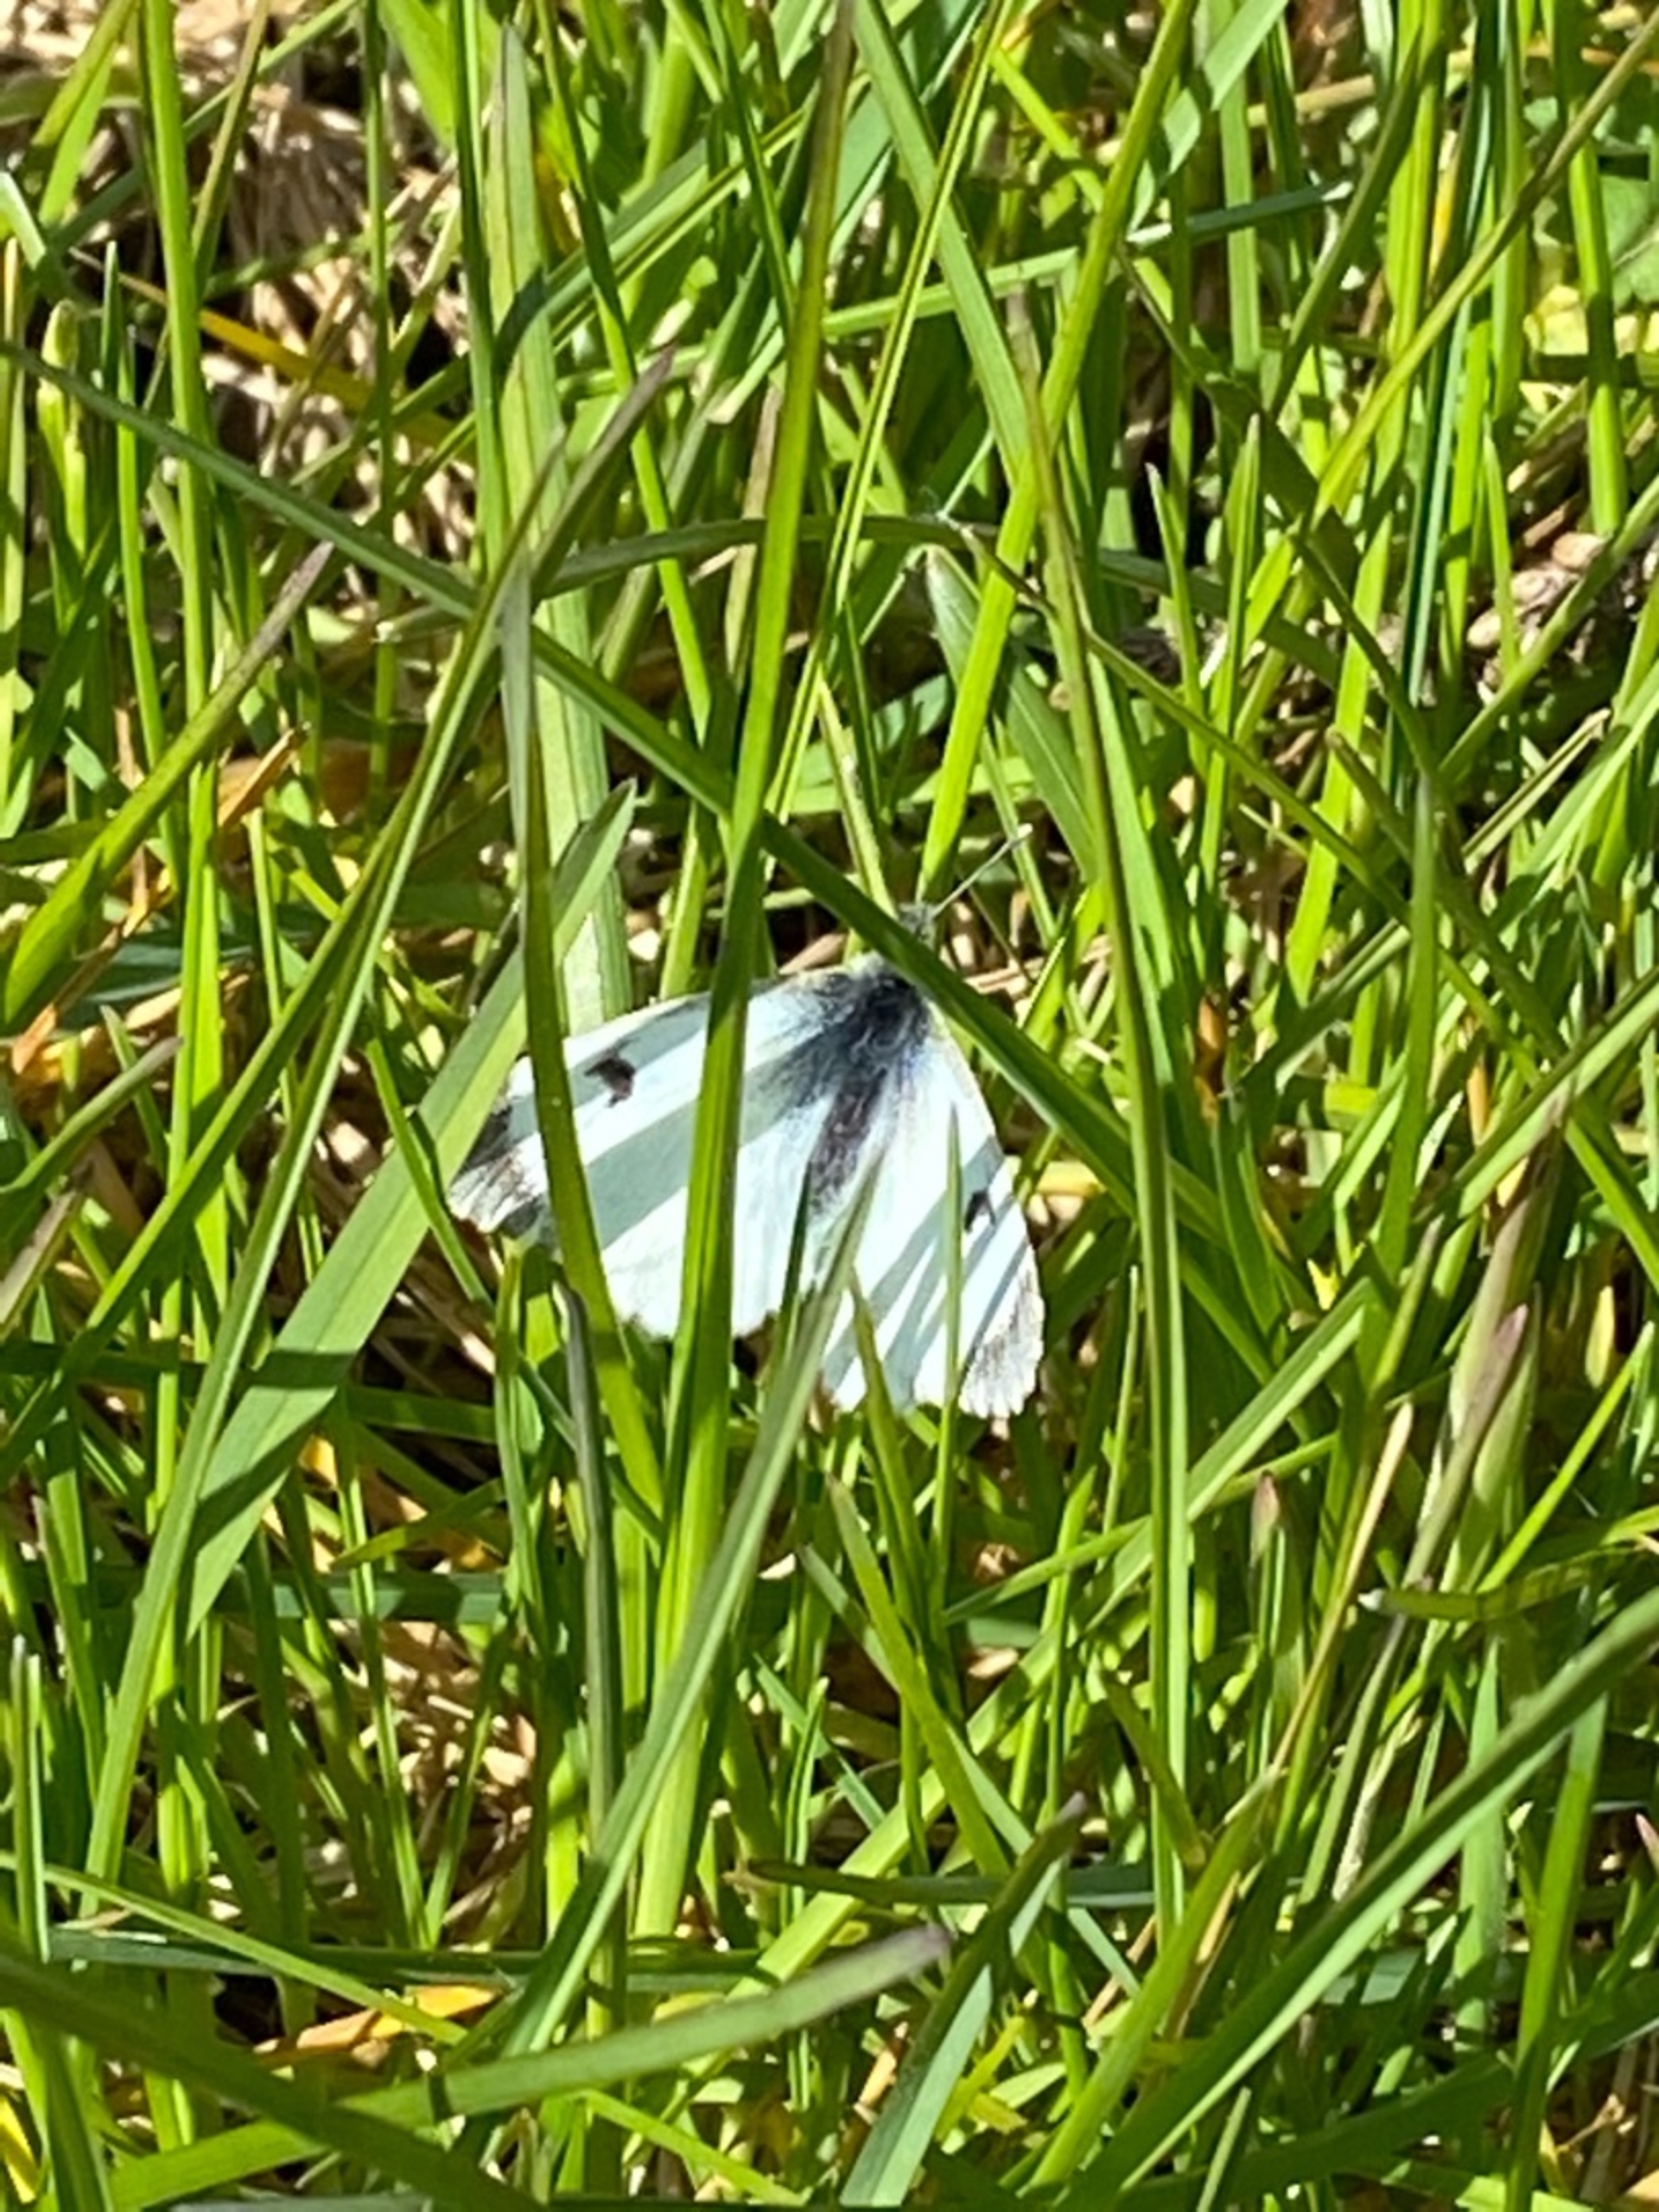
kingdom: Animalia
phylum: Arthropoda
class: Insecta
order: Lepidoptera
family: Pieridae
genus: Anthocharis
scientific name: Anthocharis cardamines
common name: Aurora
